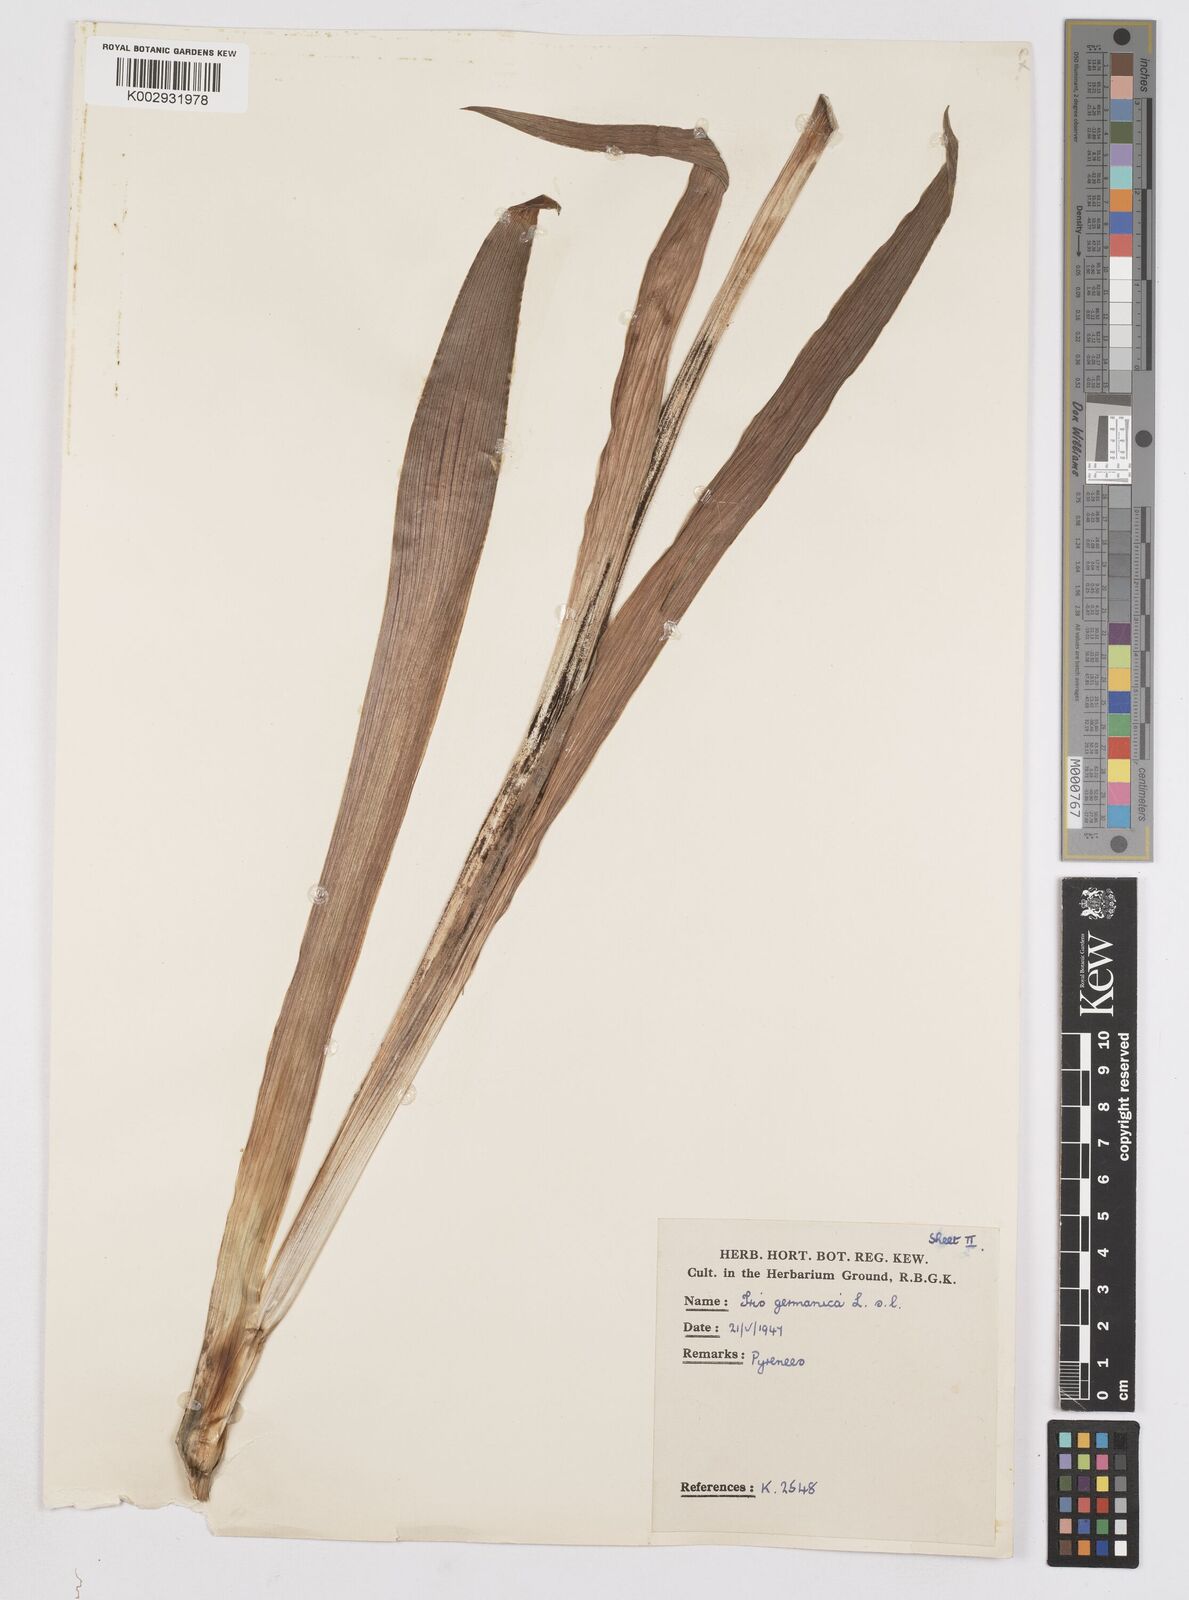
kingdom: Plantae
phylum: Tracheophyta
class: Liliopsida
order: Asparagales
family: Iridaceae
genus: Iris
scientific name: Iris
